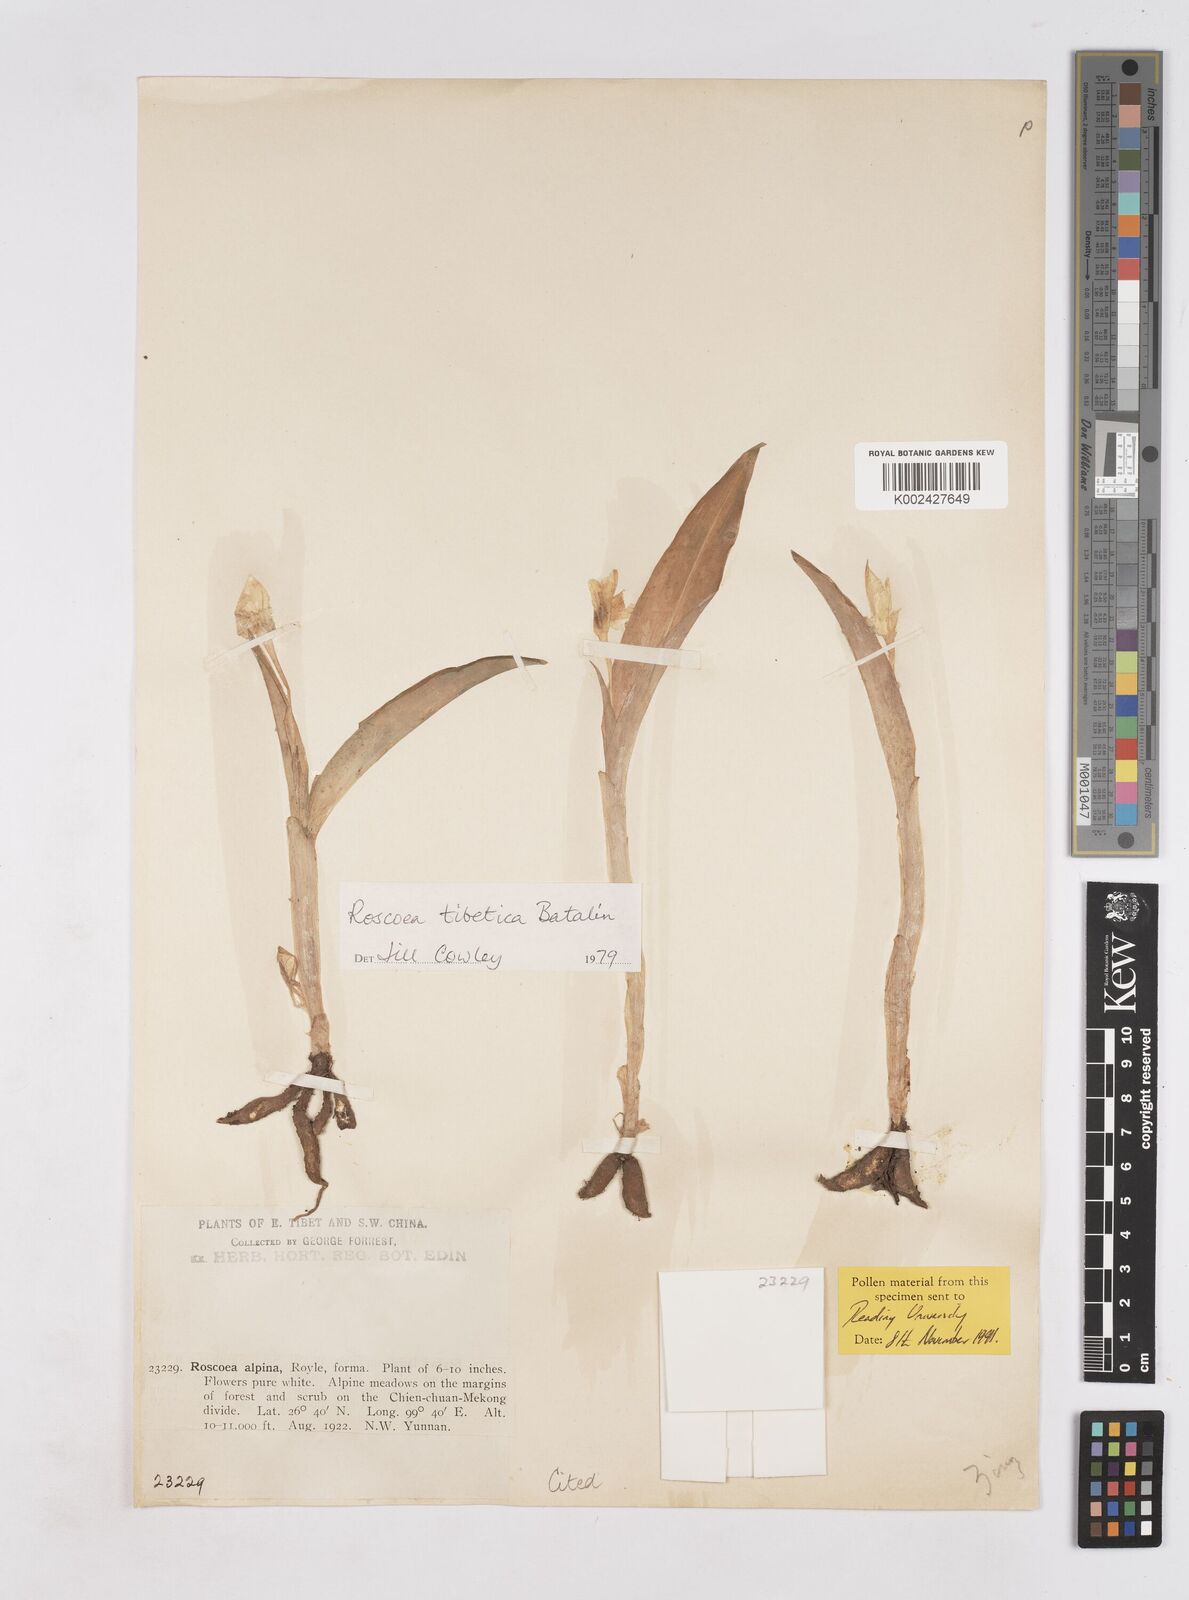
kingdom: Plantae
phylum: Tracheophyta
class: Liliopsida
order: Zingiberales
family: Zingiberaceae
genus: Roscoea
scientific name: Roscoea tibetica
